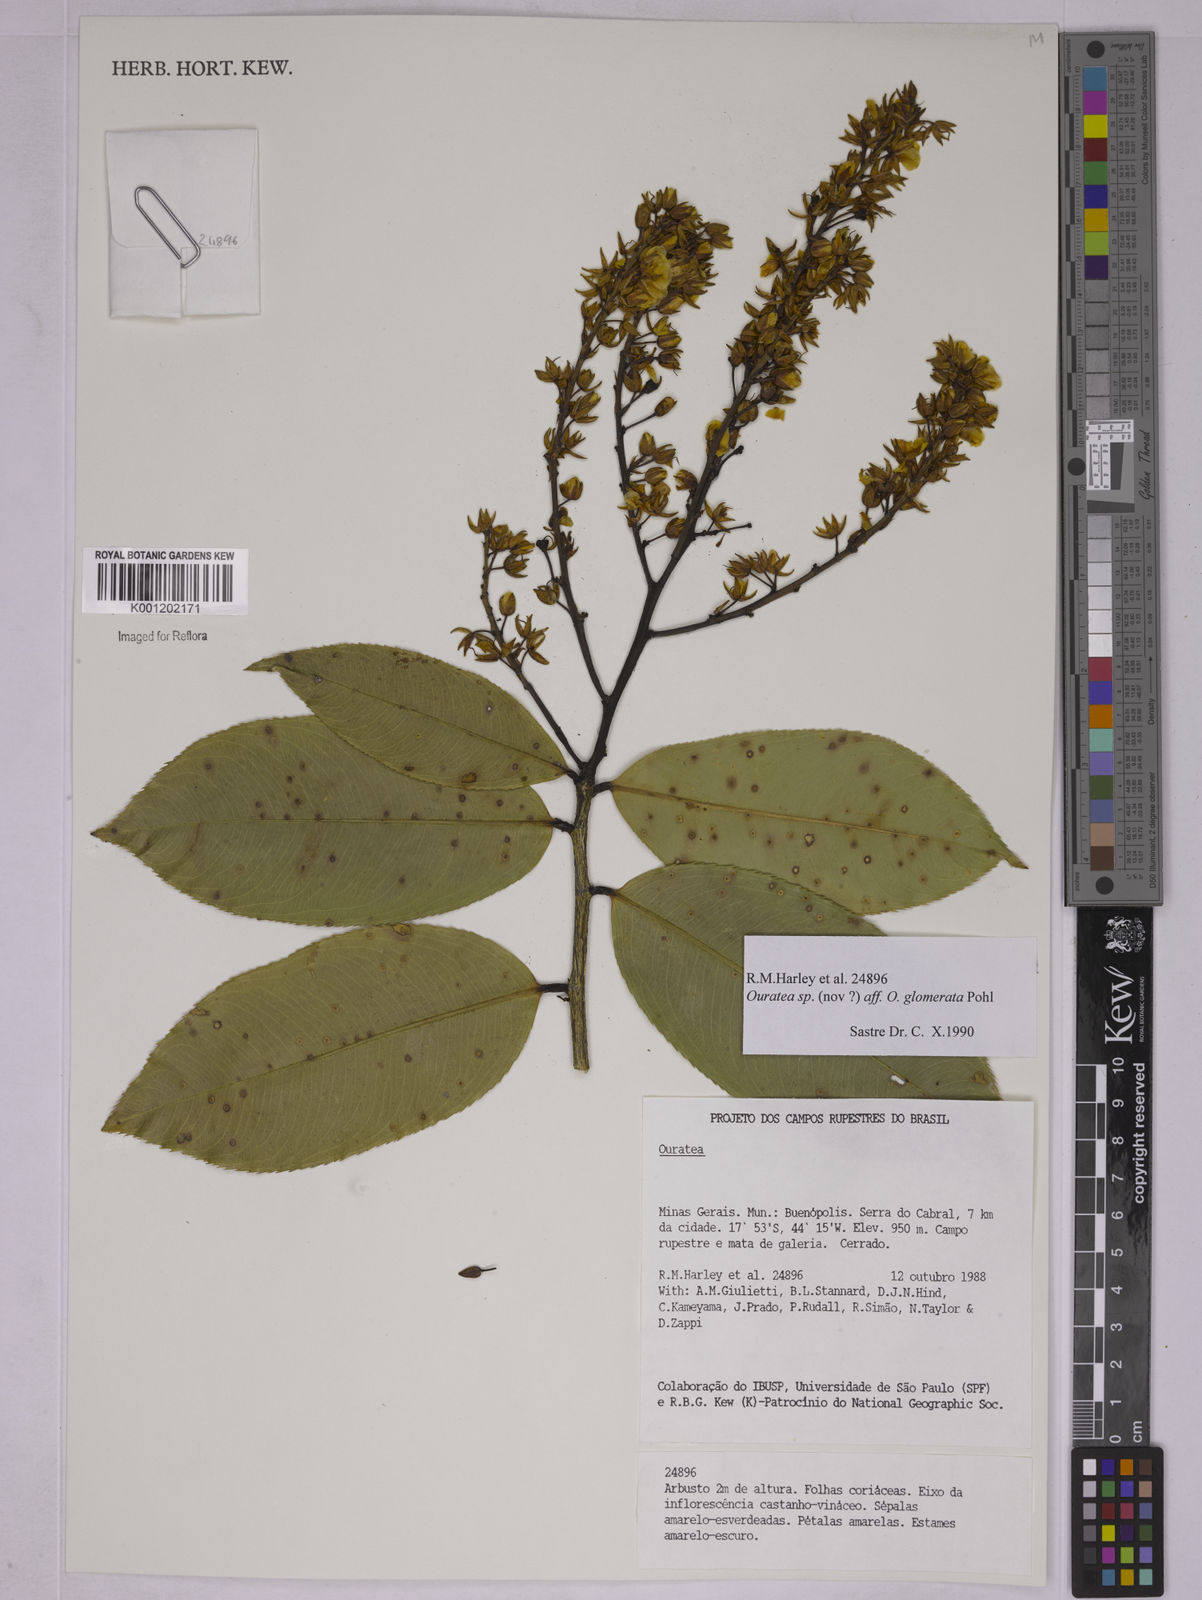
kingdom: Plantae
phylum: Tracheophyta
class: Magnoliopsida
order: Malpighiales
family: Ochnaceae
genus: Ouratea
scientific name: Ouratea
